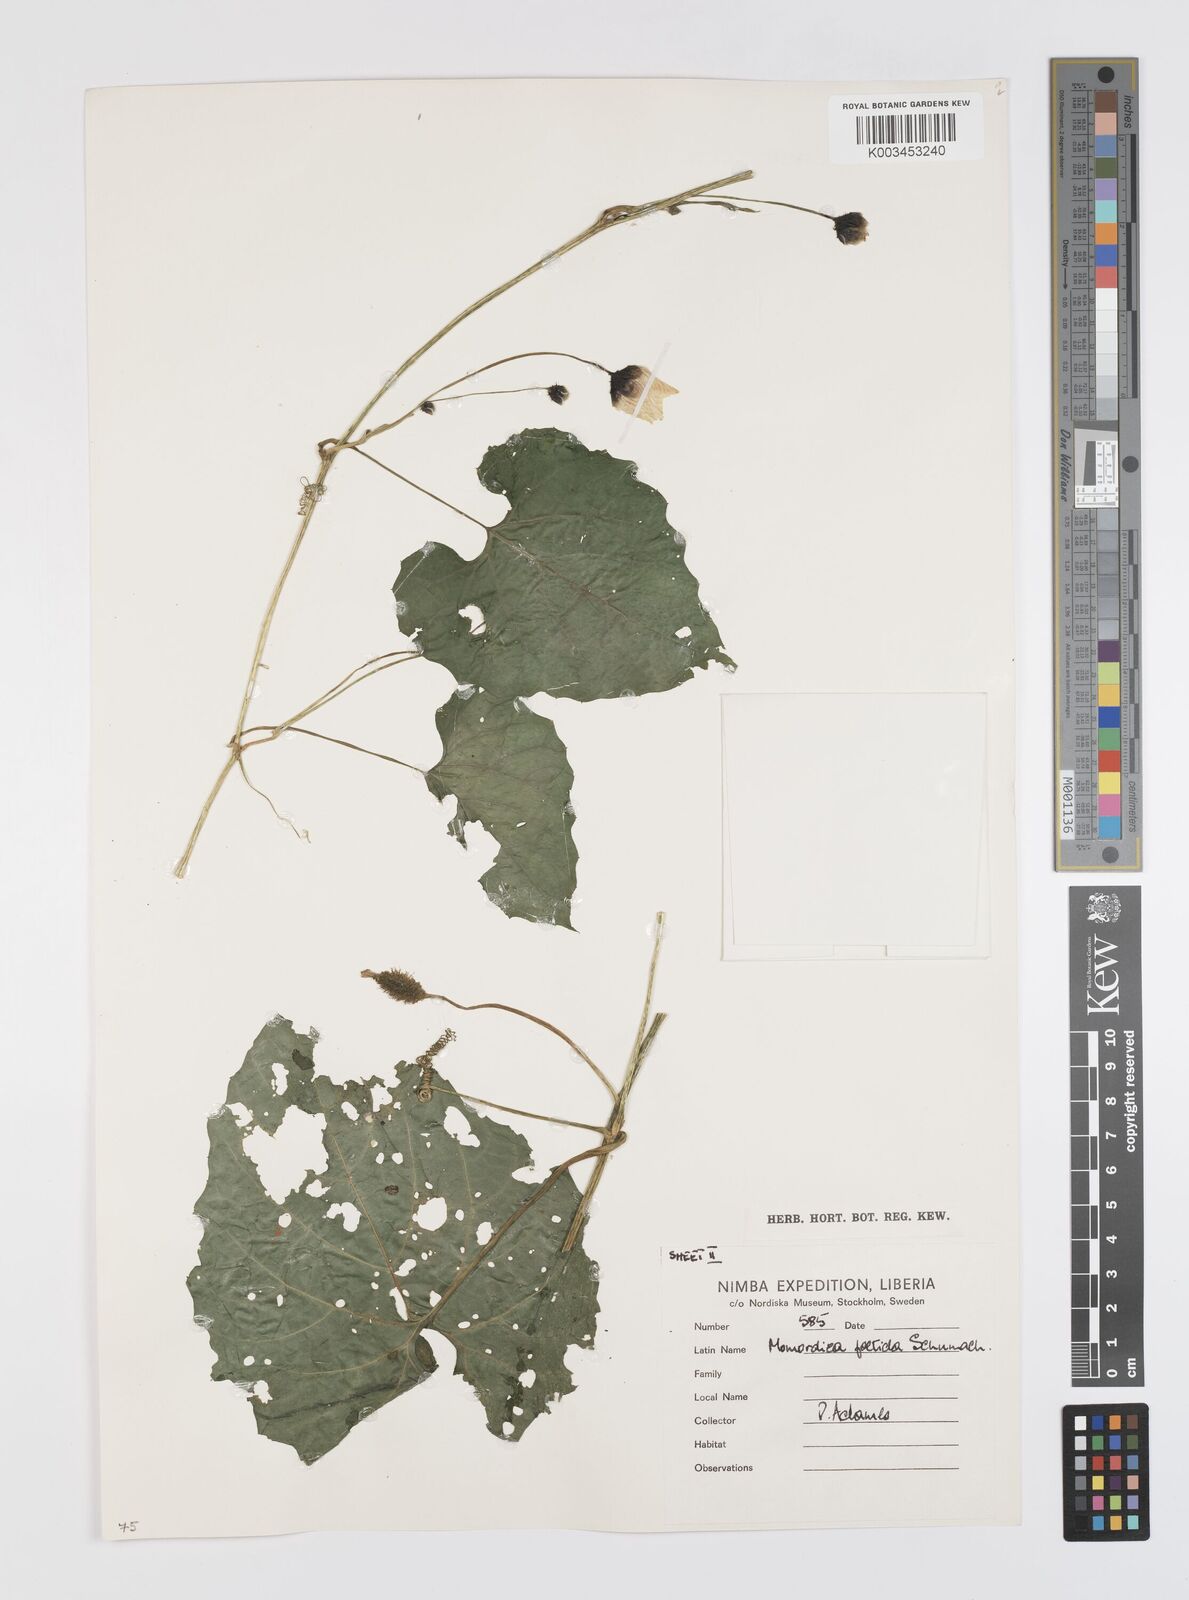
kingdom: Plantae
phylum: Tracheophyta
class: Magnoliopsida
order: Cucurbitales
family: Cucurbitaceae
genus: Momordica
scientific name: Momordica foetida
